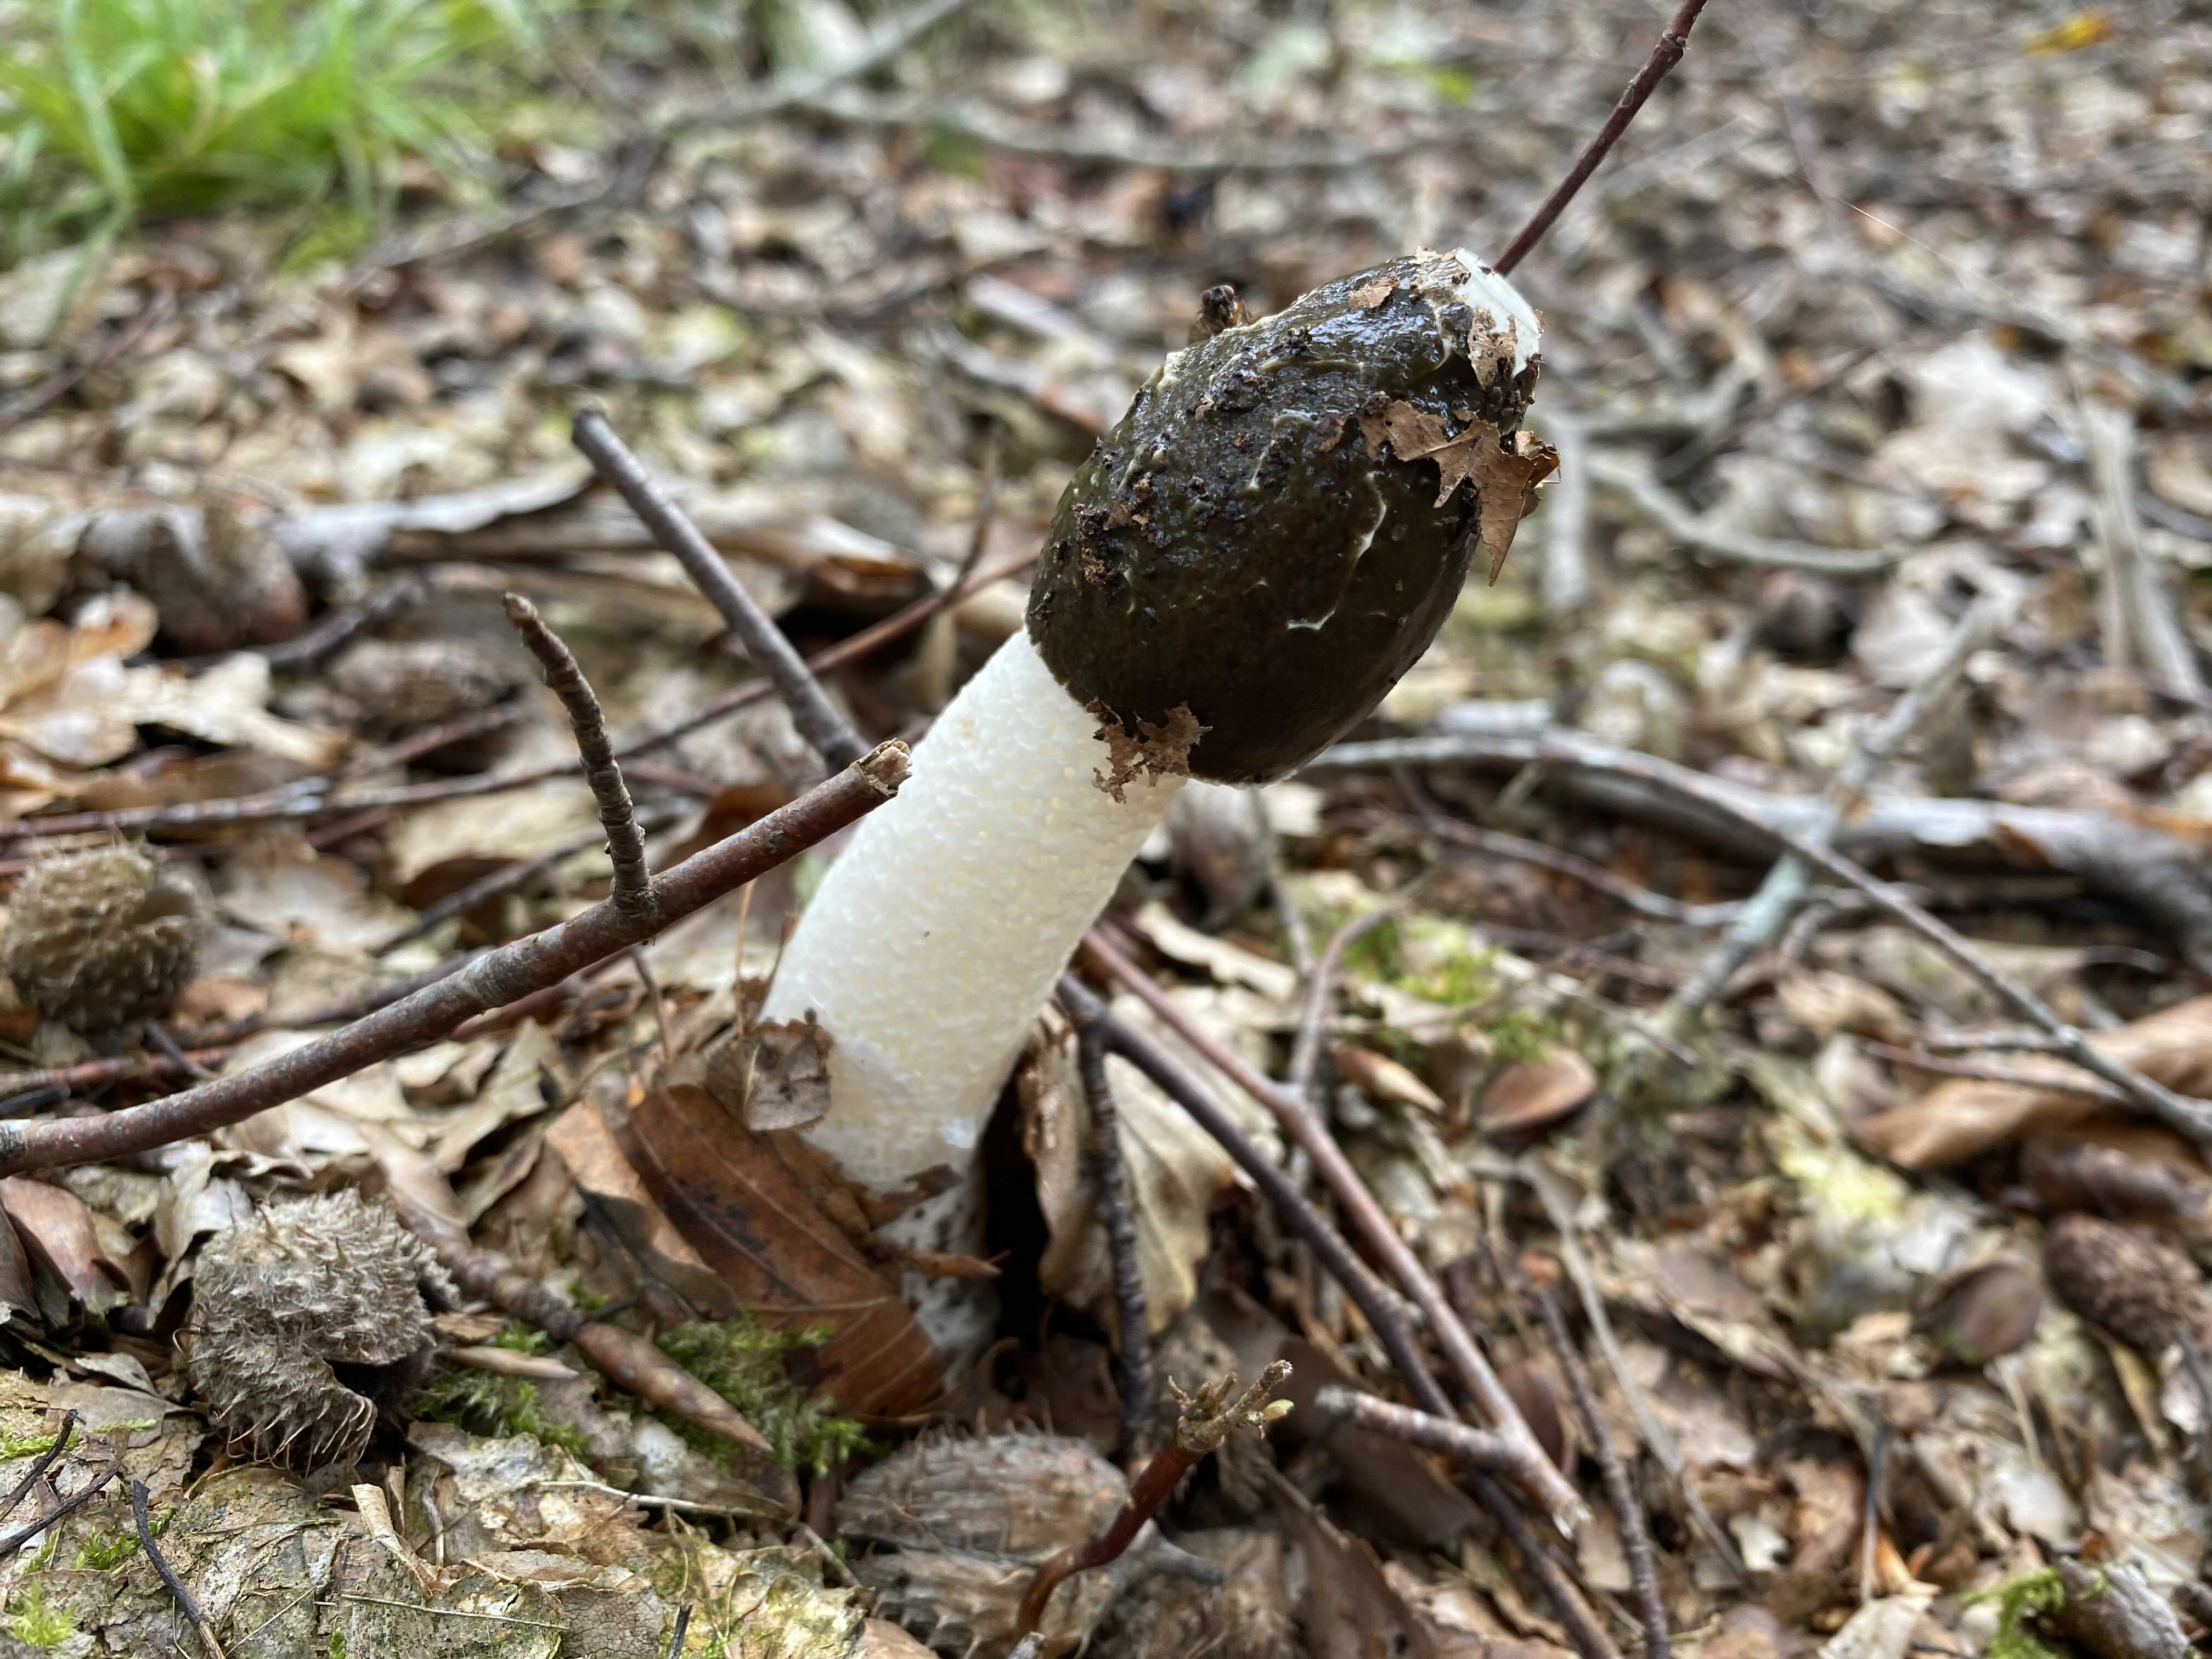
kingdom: Fungi
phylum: Basidiomycota
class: Agaricomycetes
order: Phallales
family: Phallaceae
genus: Phallus
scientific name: Phallus impudicus
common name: almindelig stinksvamp
